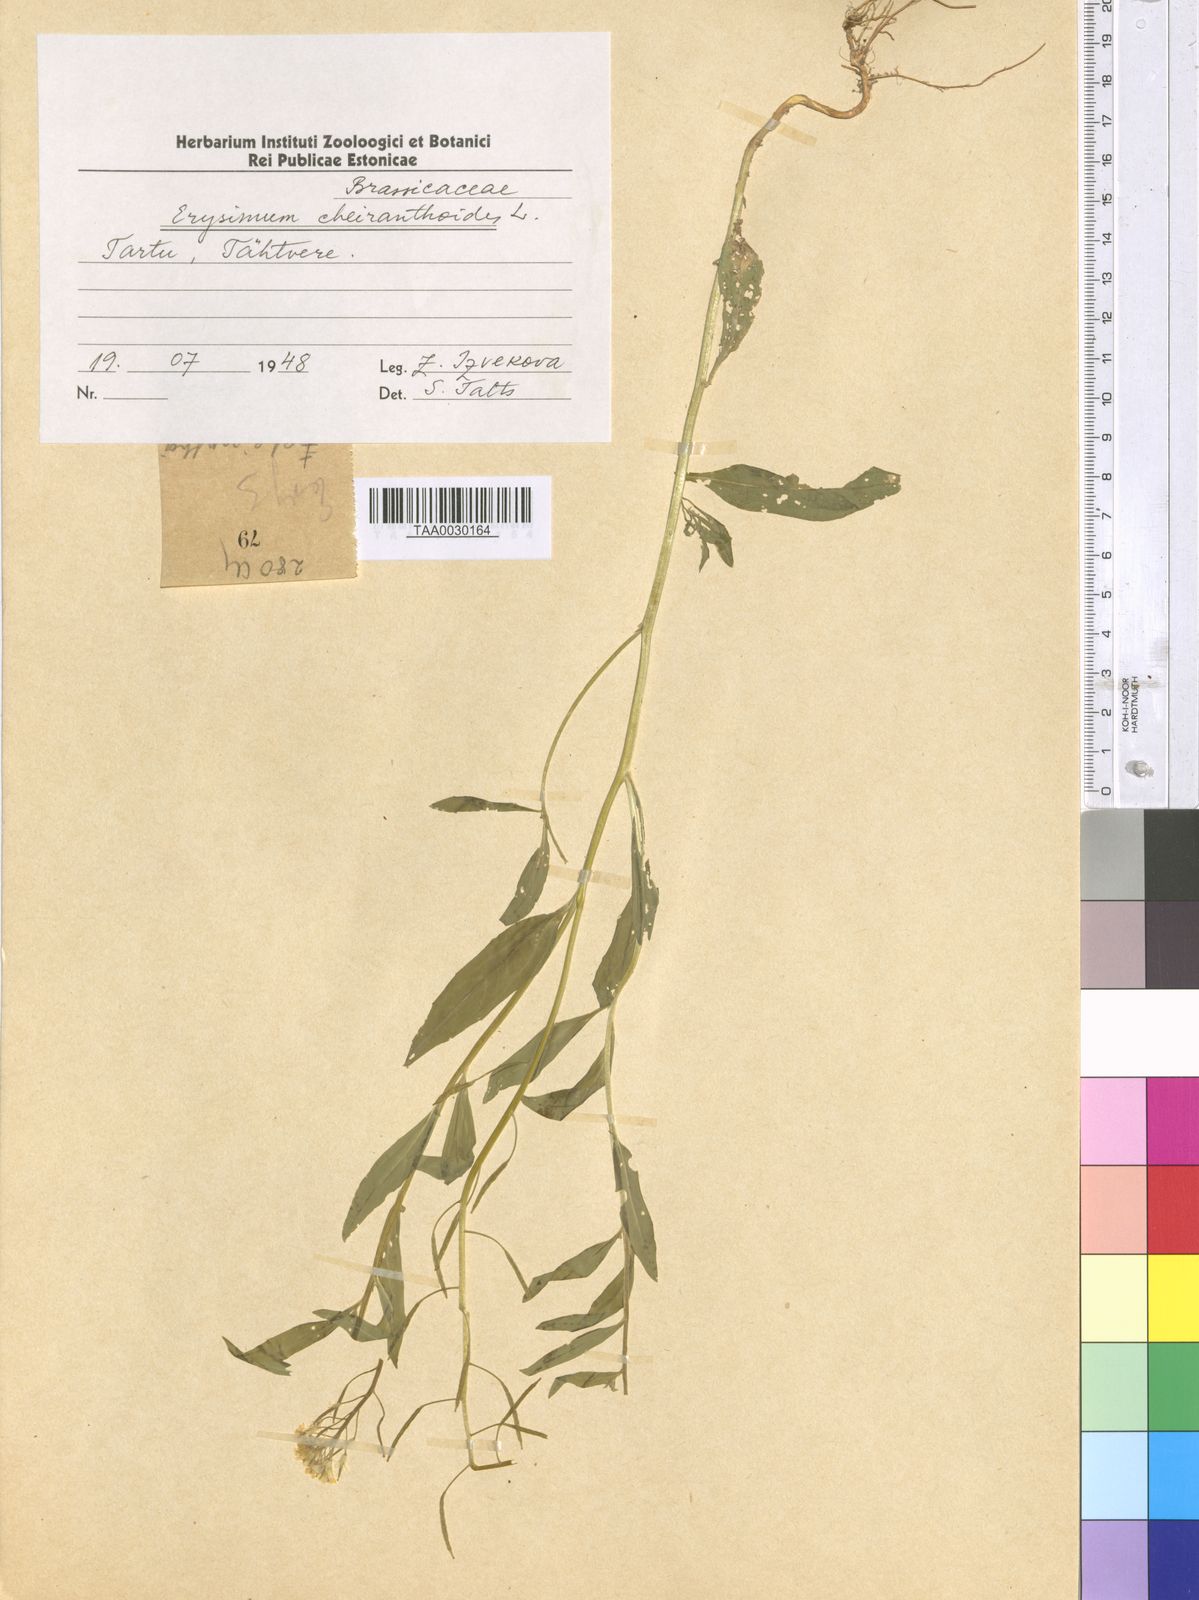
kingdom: Plantae
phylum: Tracheophyta
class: Magnoliopsida
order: Brassicales
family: Brassicaceae
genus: Erysimum
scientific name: Erysimum cheiranthoides
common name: Treacle mustard
